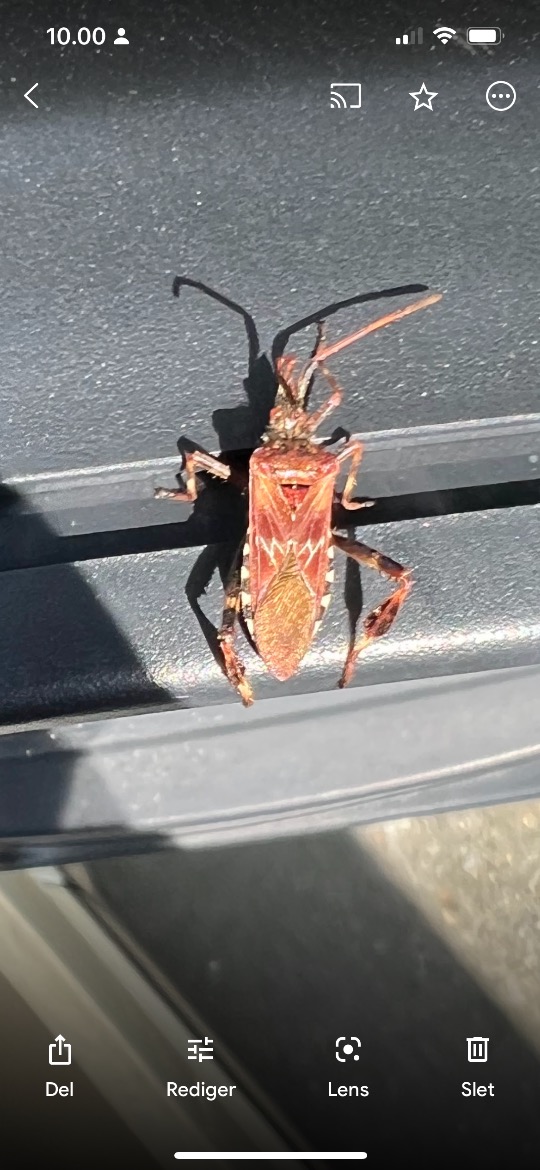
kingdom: Animalia
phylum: Arthropoda
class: Insecta
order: Hemiptera
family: Coreidae
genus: Leptoglossus
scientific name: Leptoglossus occidentalis
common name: Amerikansk fyrretæge
